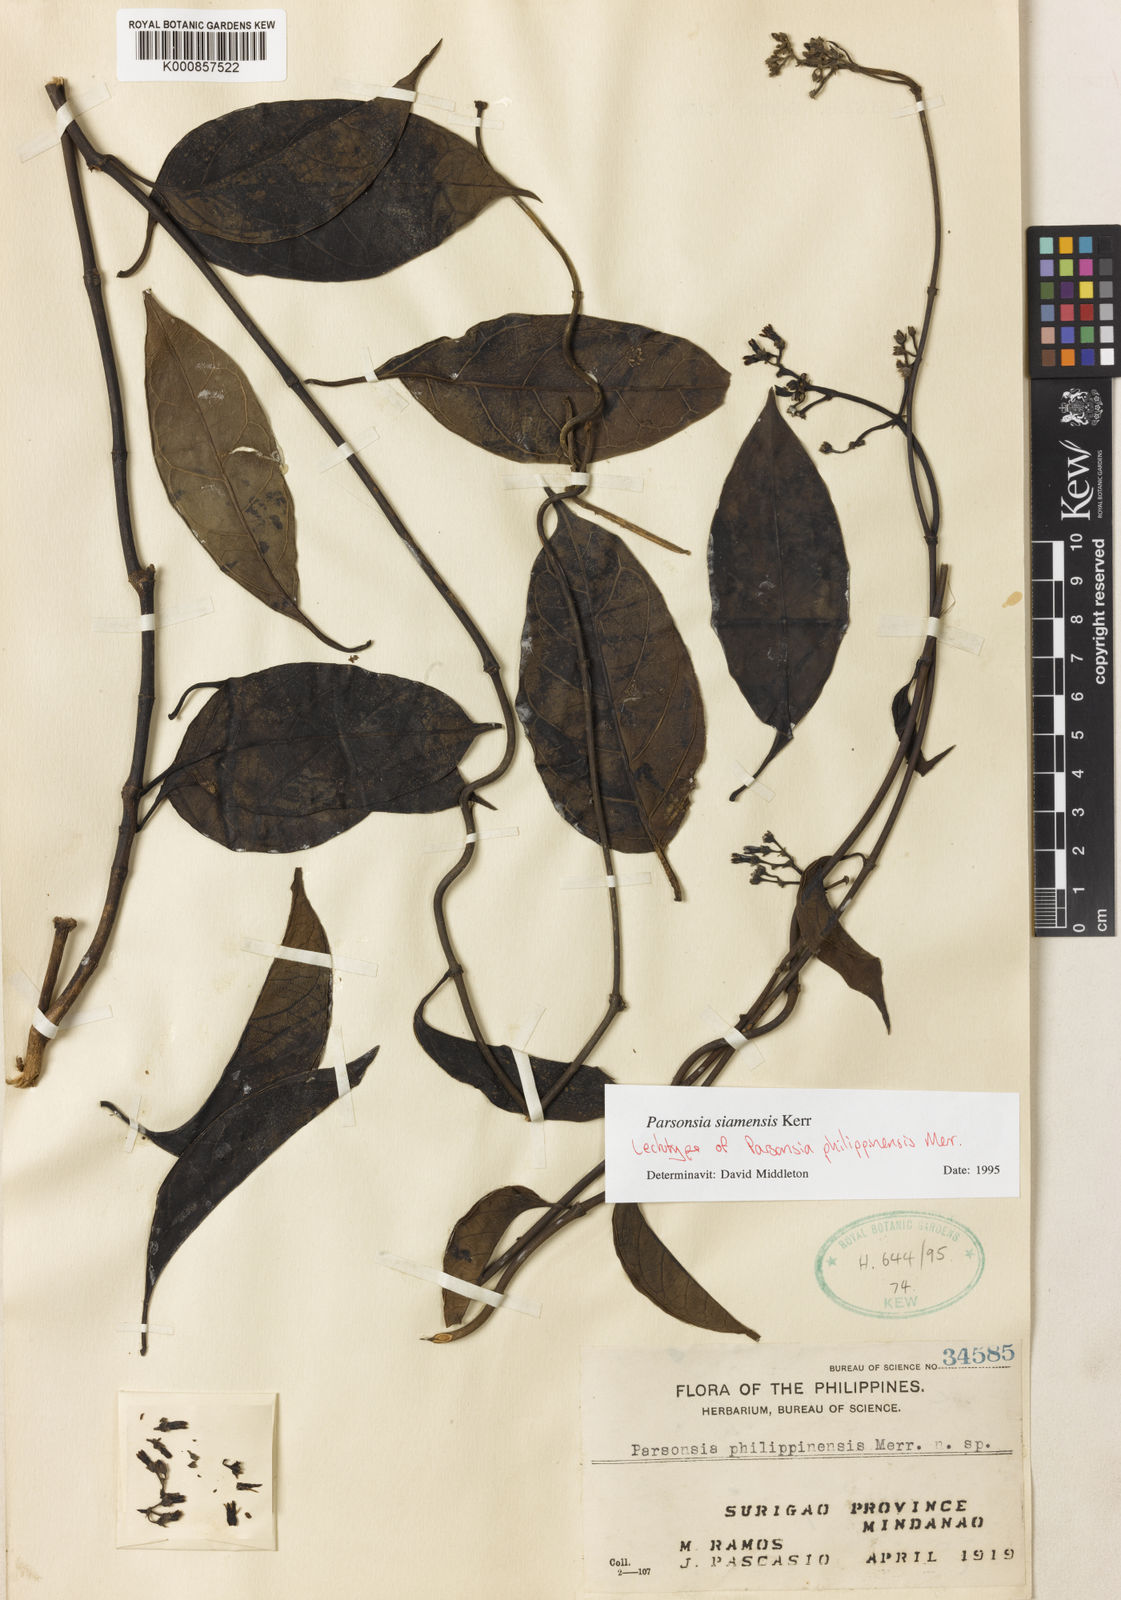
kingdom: Plantae
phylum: Tracheophyta
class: Magnoliopsida
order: Gentianales
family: Apocynaceae
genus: Parsonsia
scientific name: Parsonsia philippinensis
